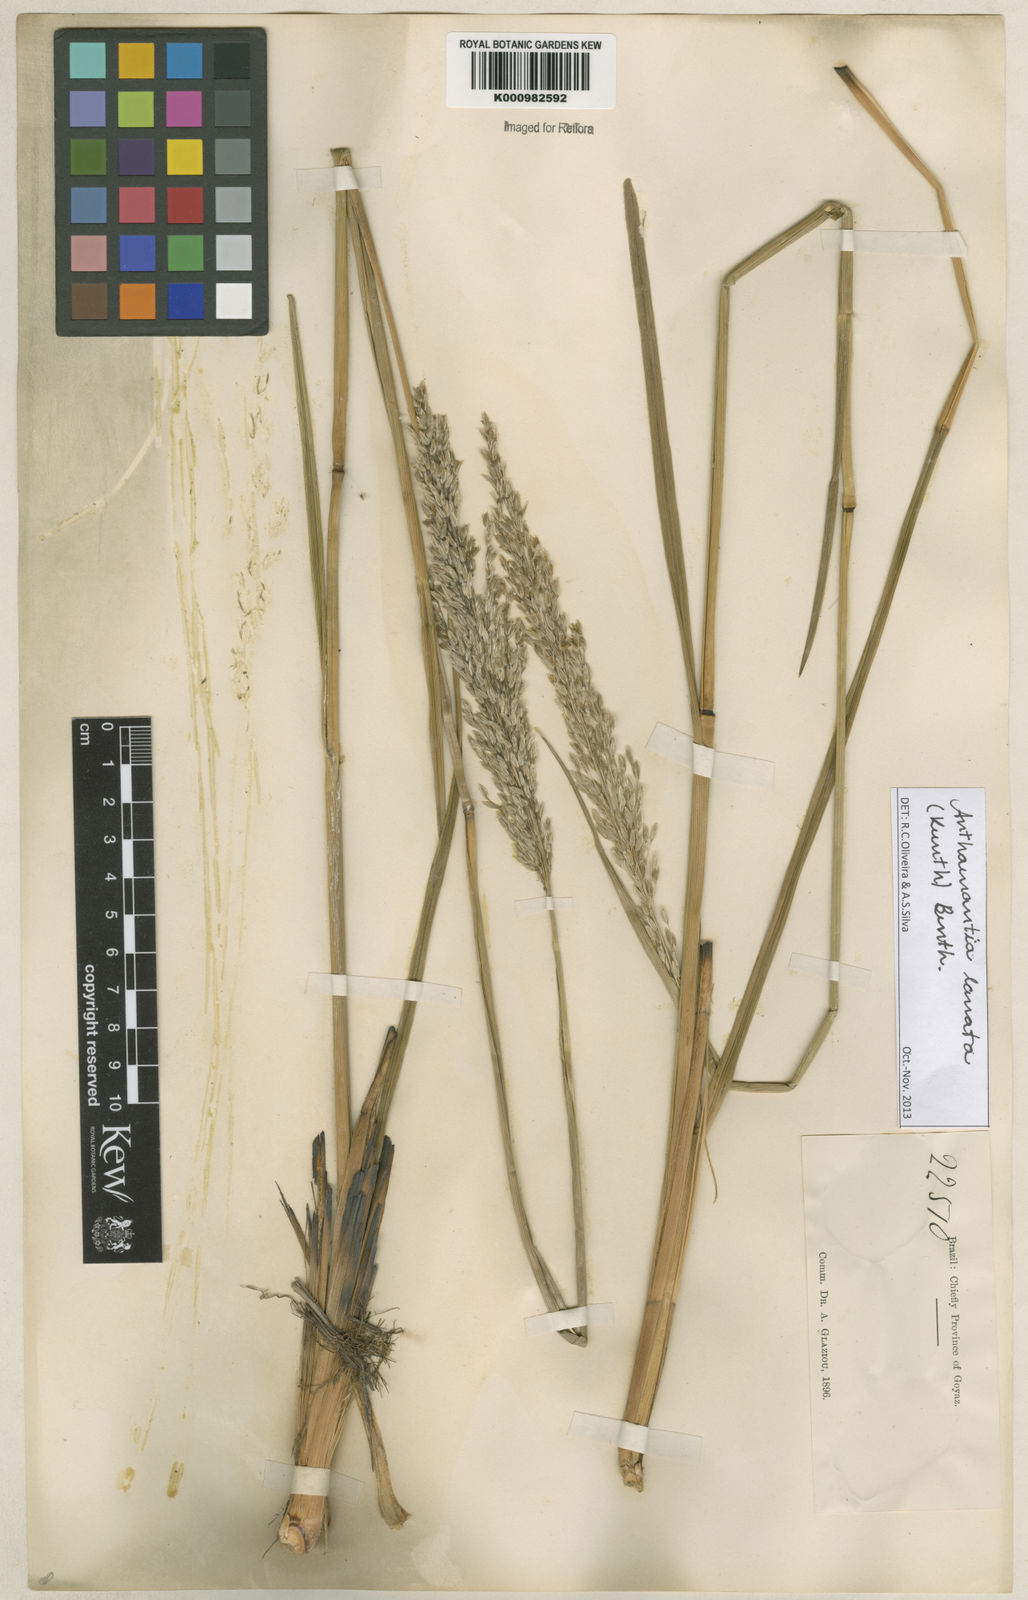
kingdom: Plantae
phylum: Tracheophyta
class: Liliopsida
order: Poales
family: Poaceae
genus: Anthenantia
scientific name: Anthenantia lanata
